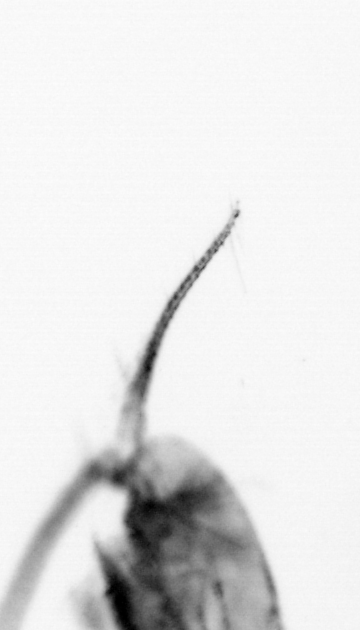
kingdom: Animalia
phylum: Arthropoda
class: Copepoda
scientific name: Copepoda
